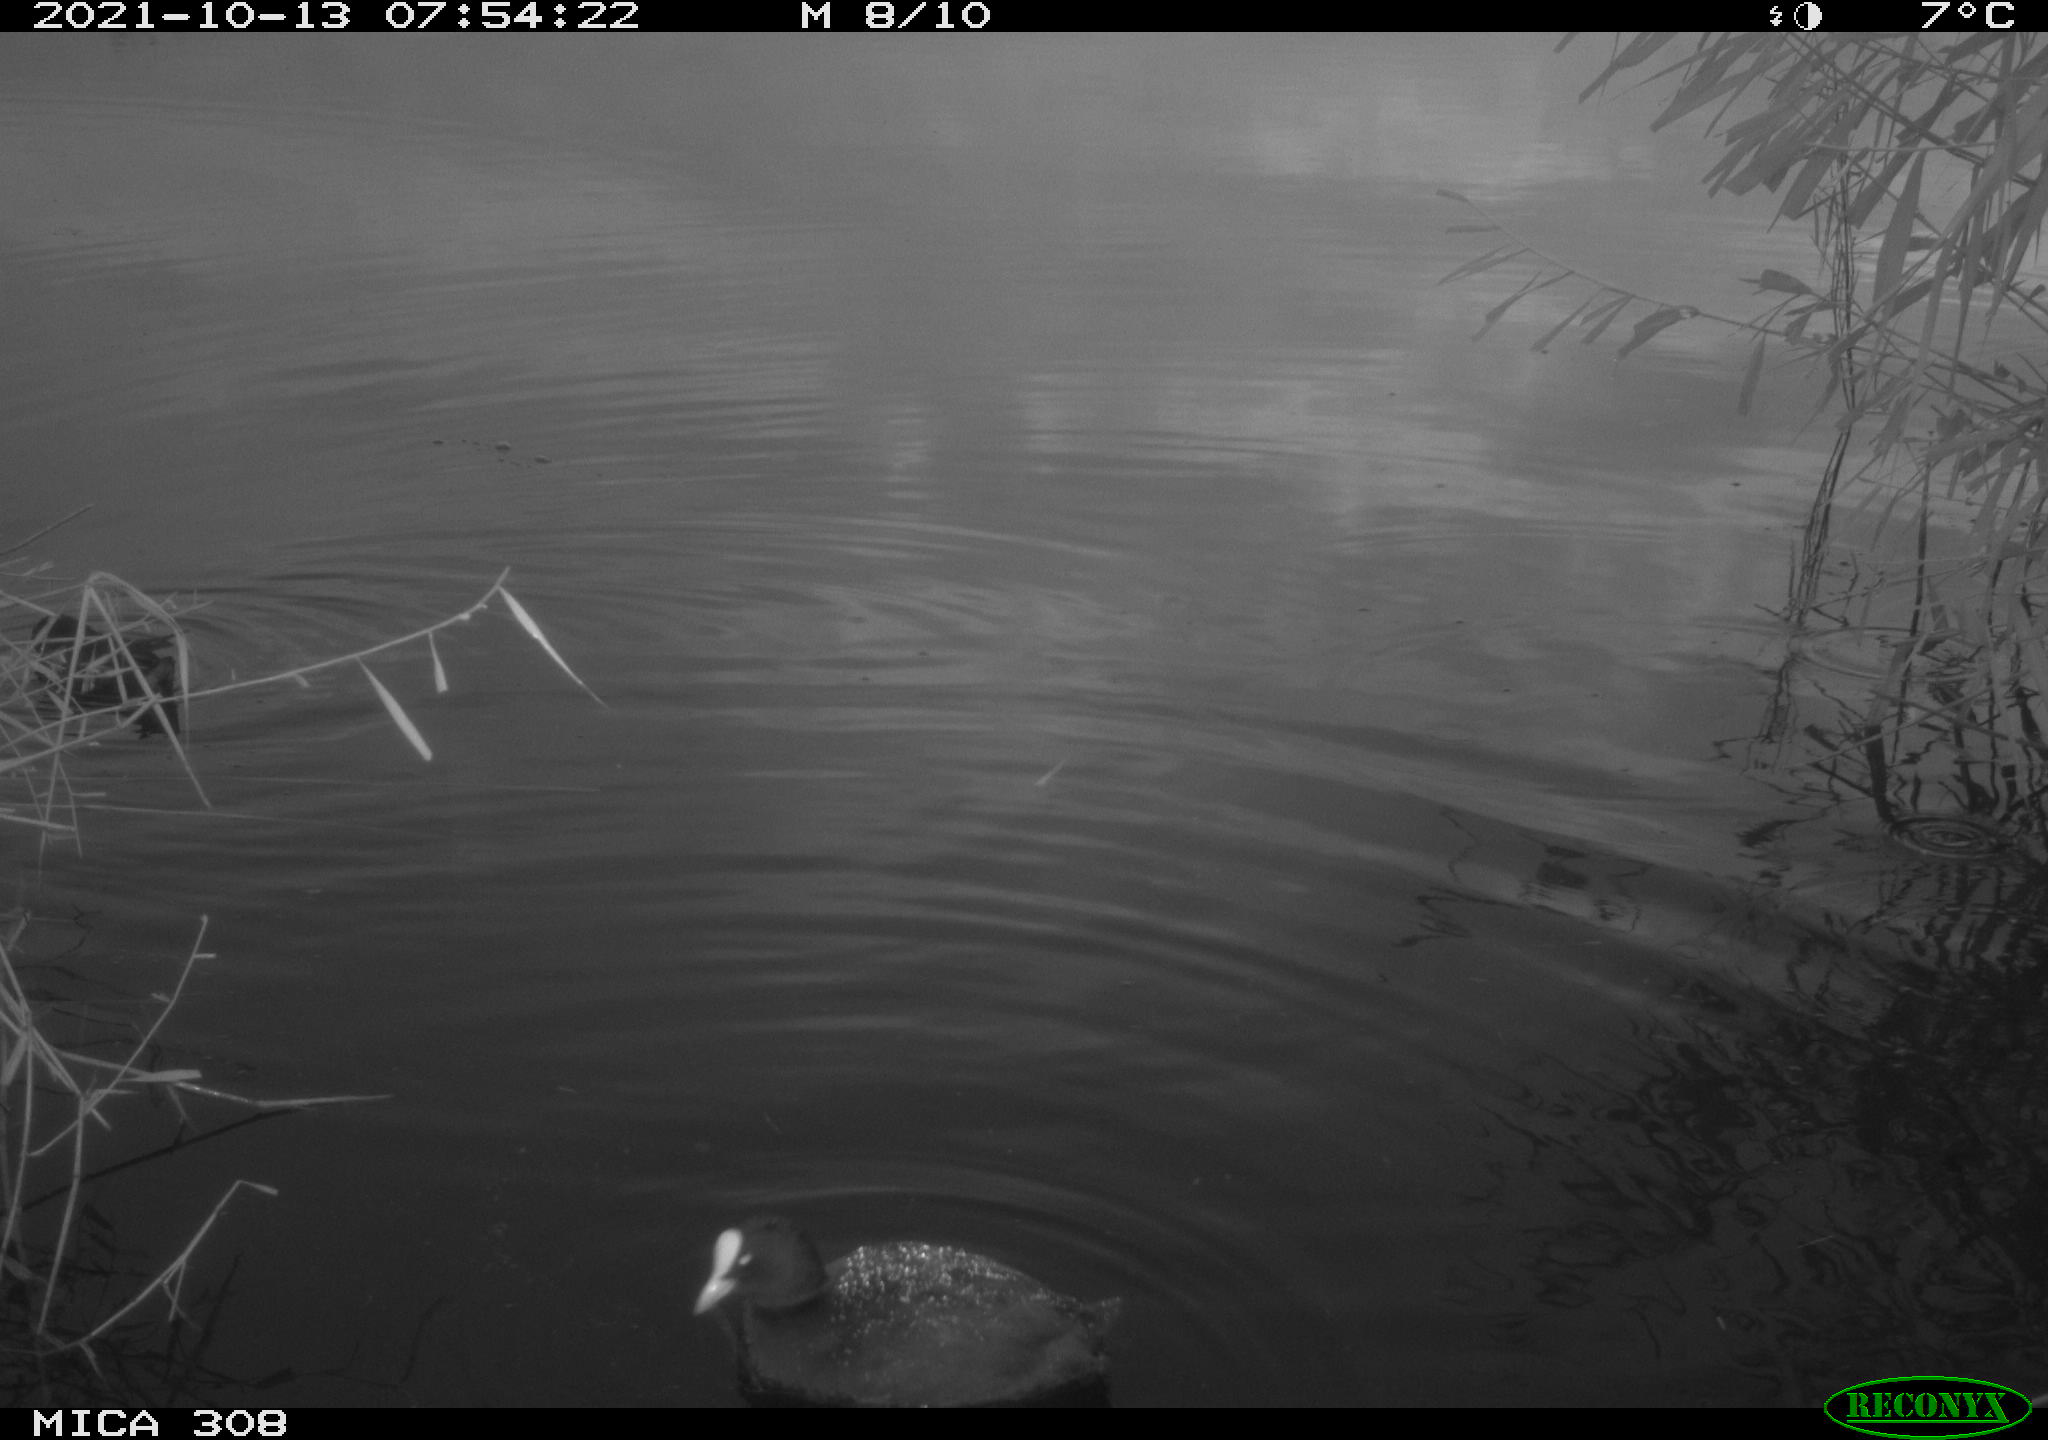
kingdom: Animalia
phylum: Chordata
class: Aves
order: Gruiformes
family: Rallidae
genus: Gallinula
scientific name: Gallinula chloropus
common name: Common moorhen
